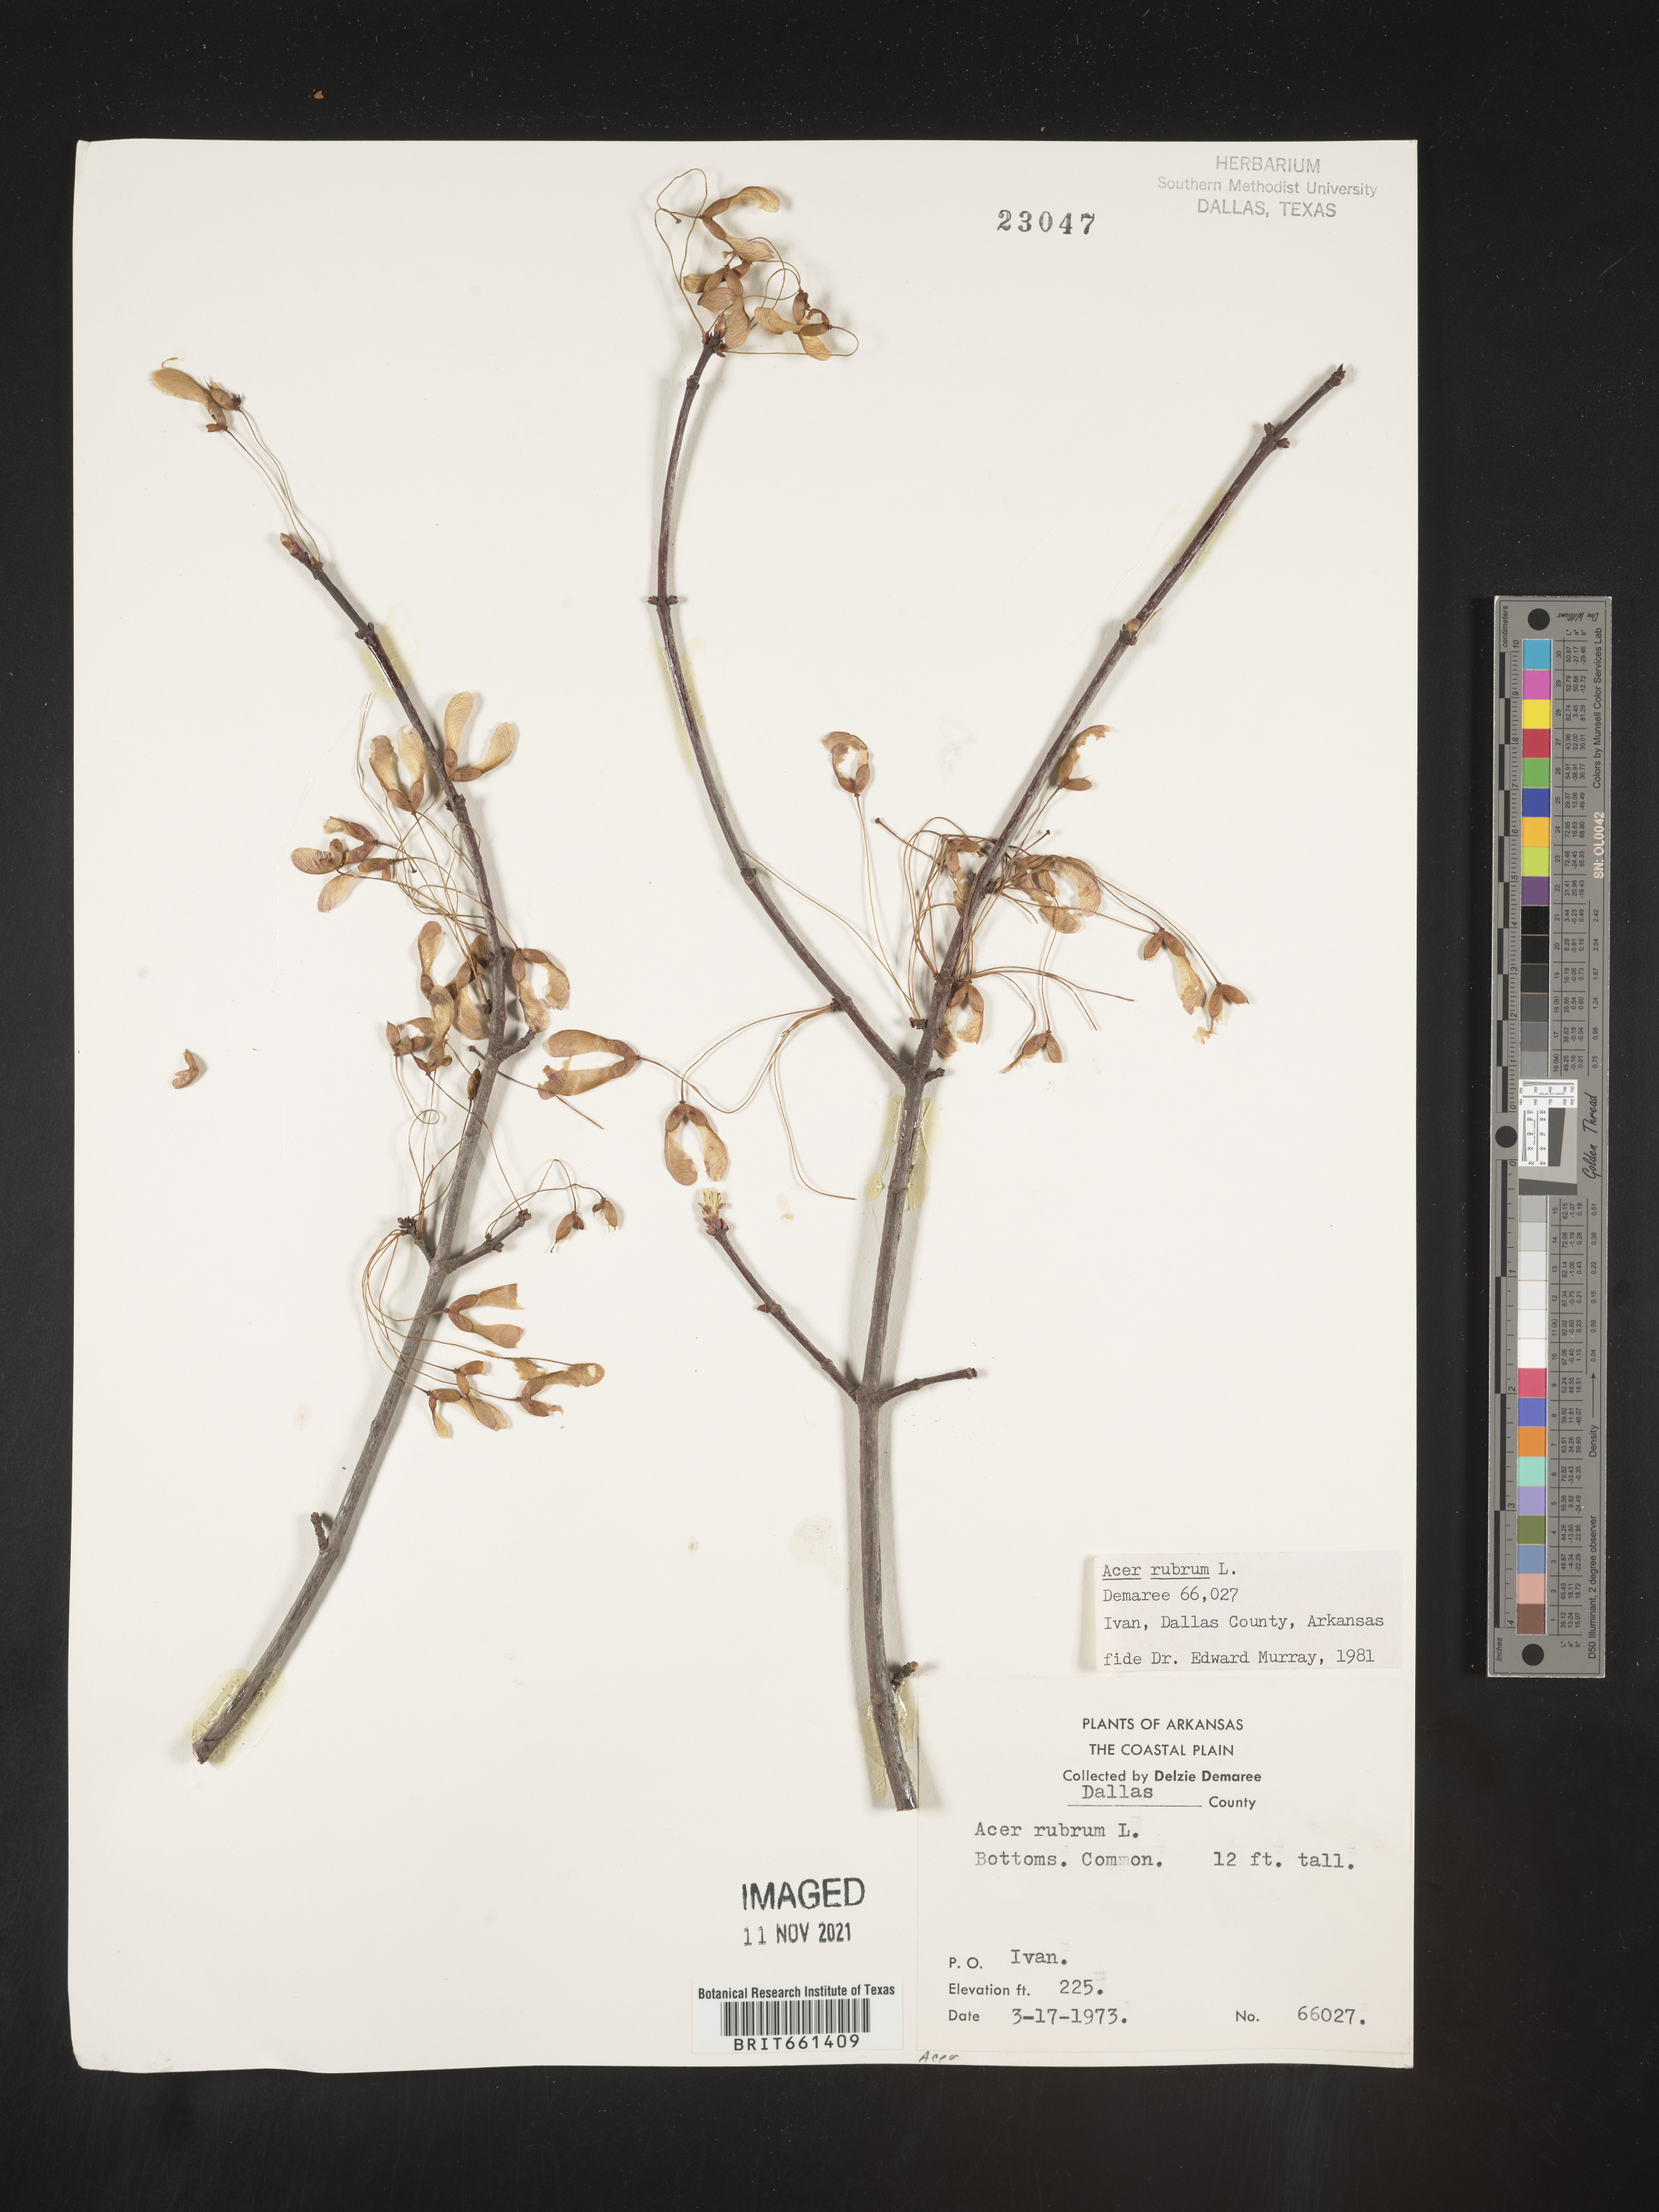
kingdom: Plantae
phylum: Tracheophyta
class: Magnoliopsida
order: Sapindales
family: Sapindaceae
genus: Acer
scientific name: Acer rubrum
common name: Red maple
